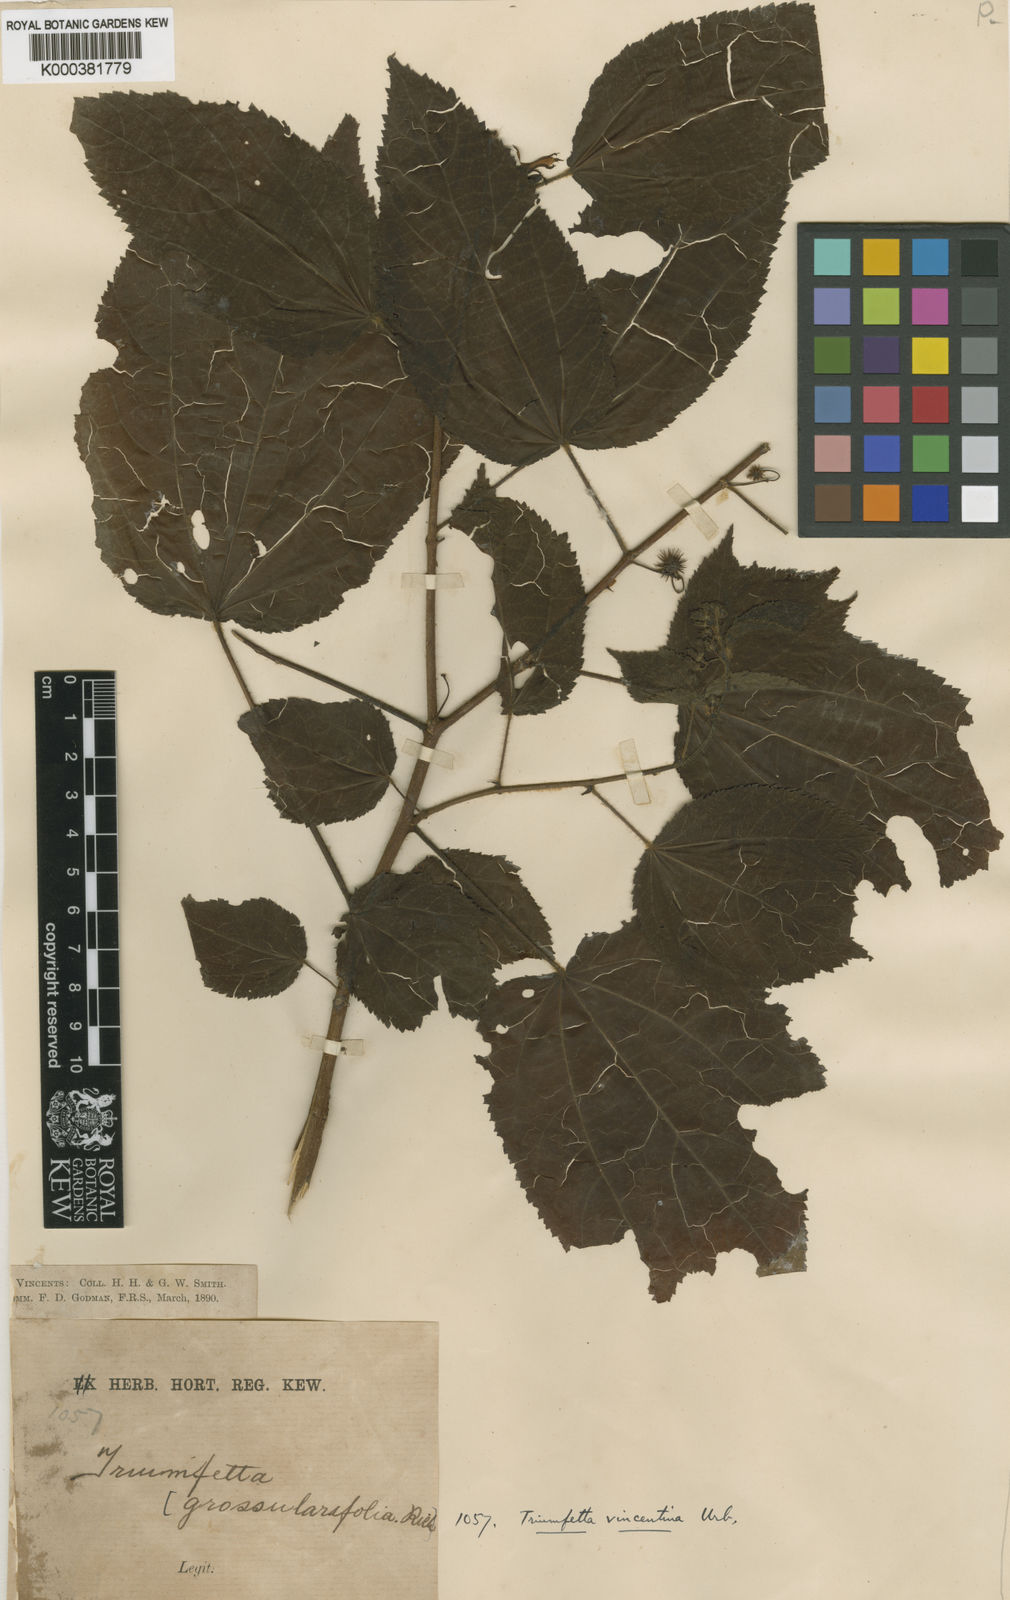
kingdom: Plantae
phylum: Tracheophyta
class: Magnoliopsida
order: Malvales
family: Malvaceae
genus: Triumfetta
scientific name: Triumfetta bogotensis
